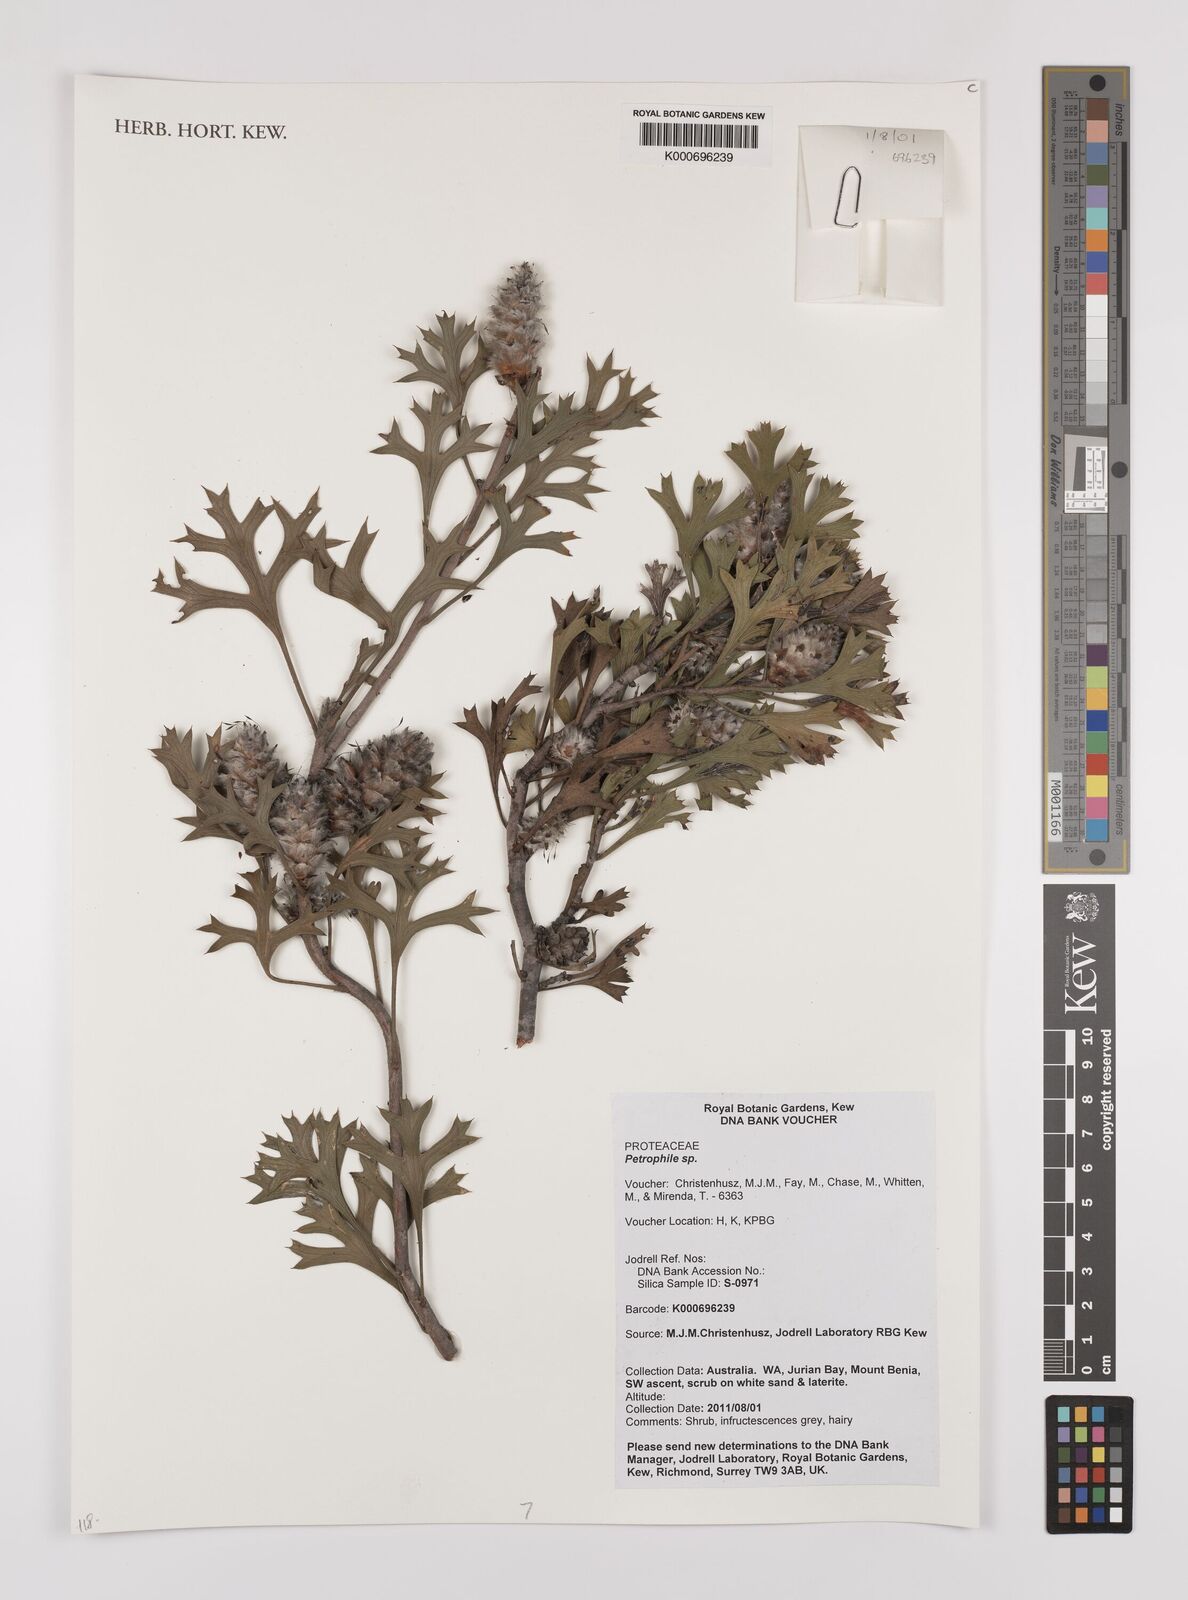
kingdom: Plantae
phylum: Tracheophyta
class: Magnoliopsida
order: Proteales
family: Proteaceae
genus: Petrophile
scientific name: Petrophile
